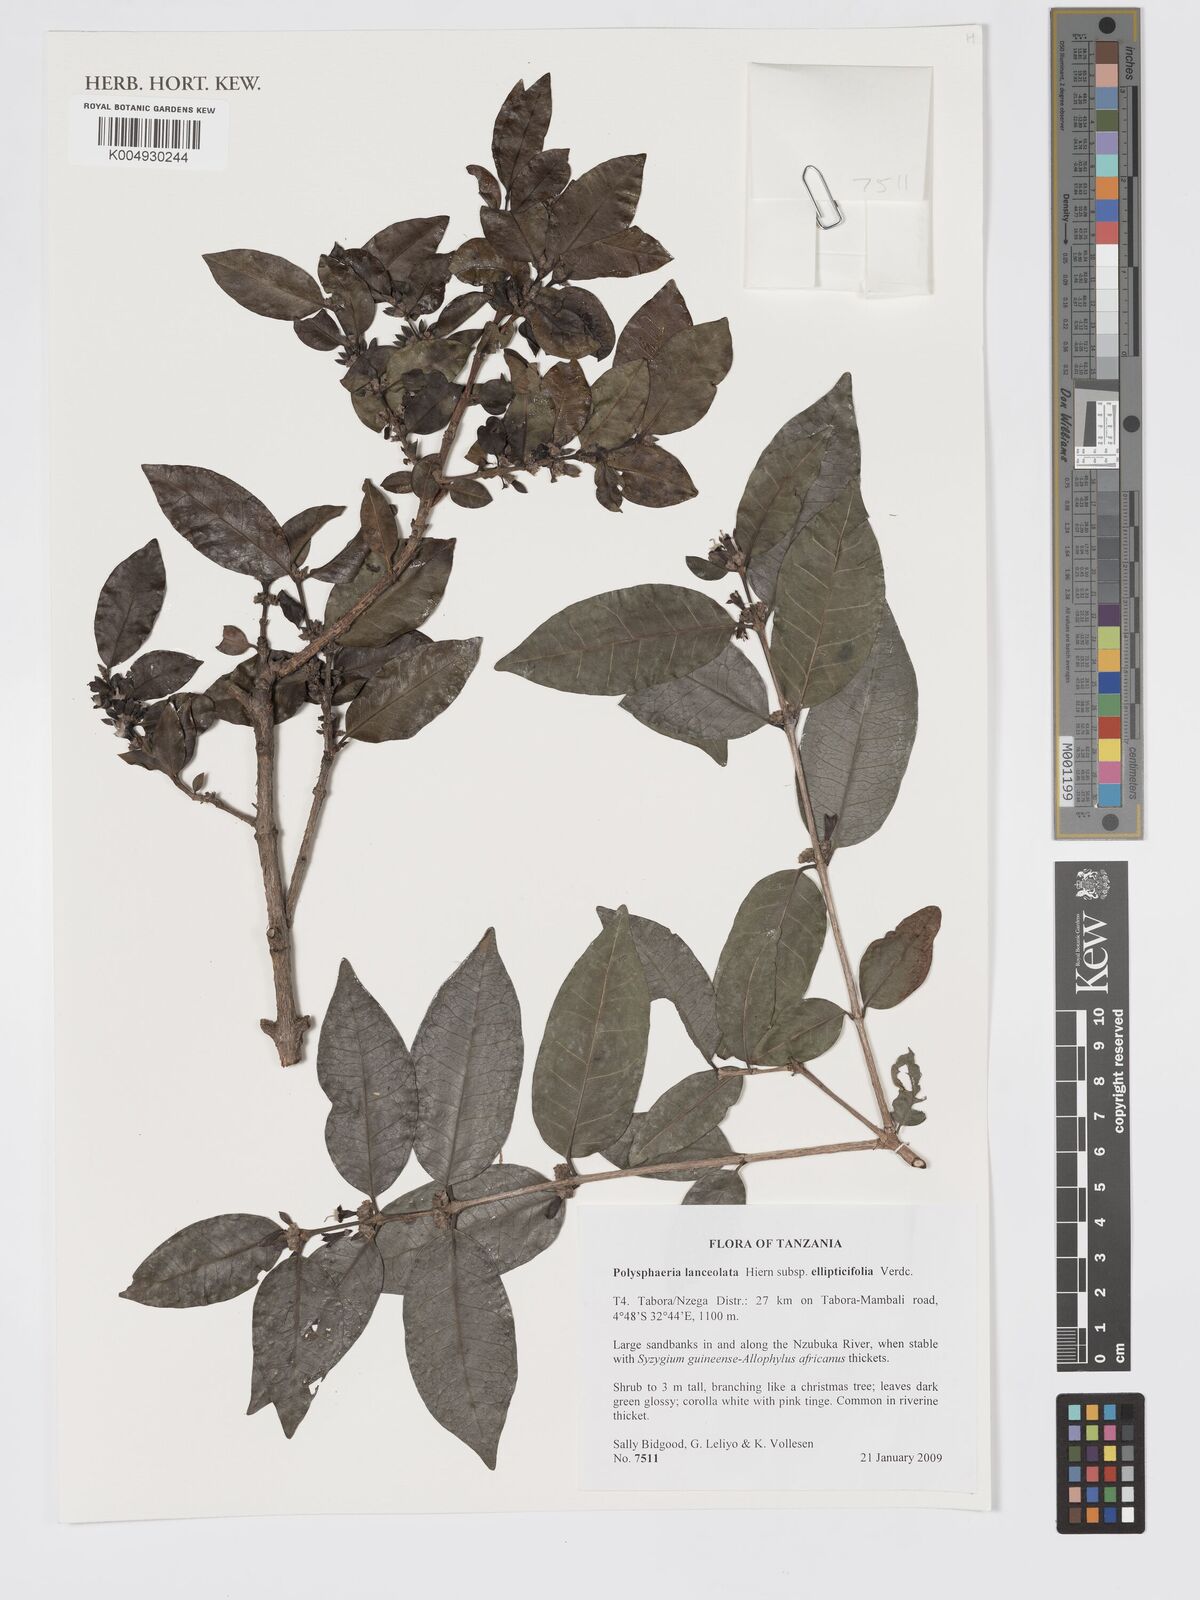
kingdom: Plantae
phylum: Tracheophyta
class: Magnoliopsida
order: Gentianales
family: Rubiaceae
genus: Polysphaeria
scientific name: Polysphaeria lanceolata
